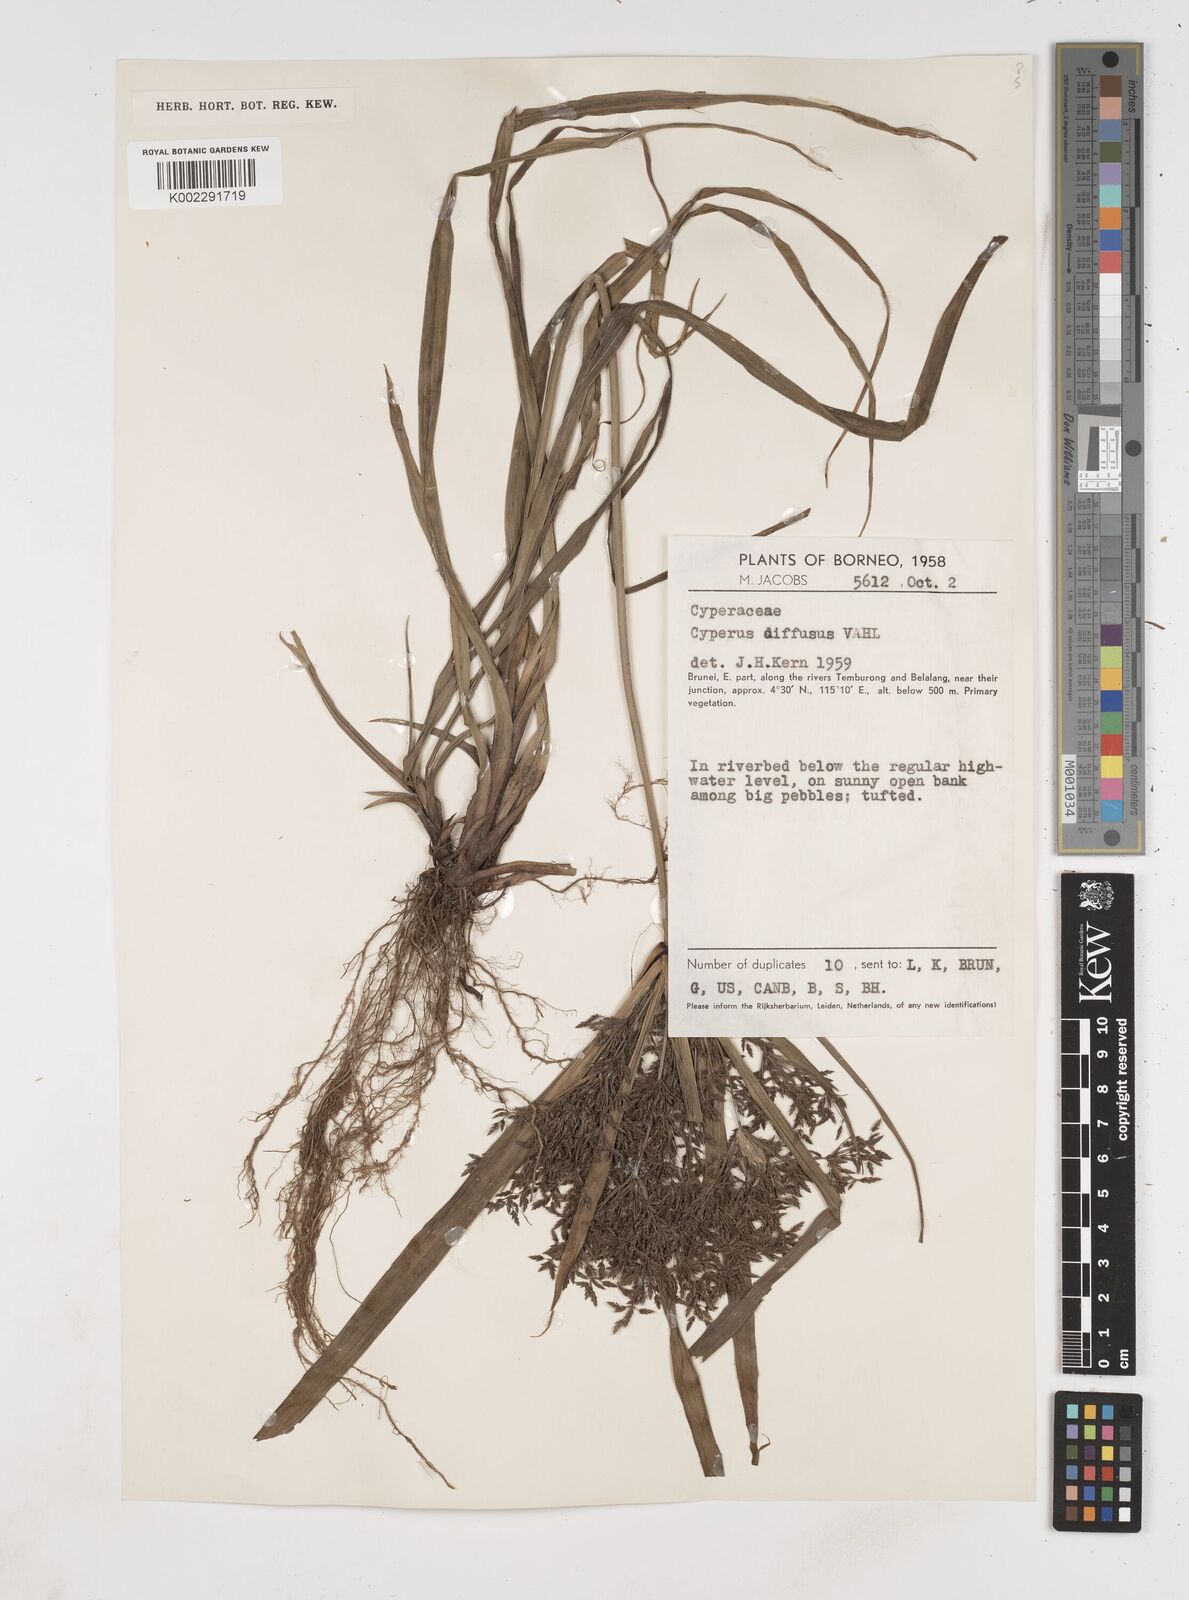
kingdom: Plantae
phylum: Tracheophyta
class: Liliopsida
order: Poales
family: Cyperaceae
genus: Cyperus
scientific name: Cyperus diffusus
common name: Dwarf umbrella grass
